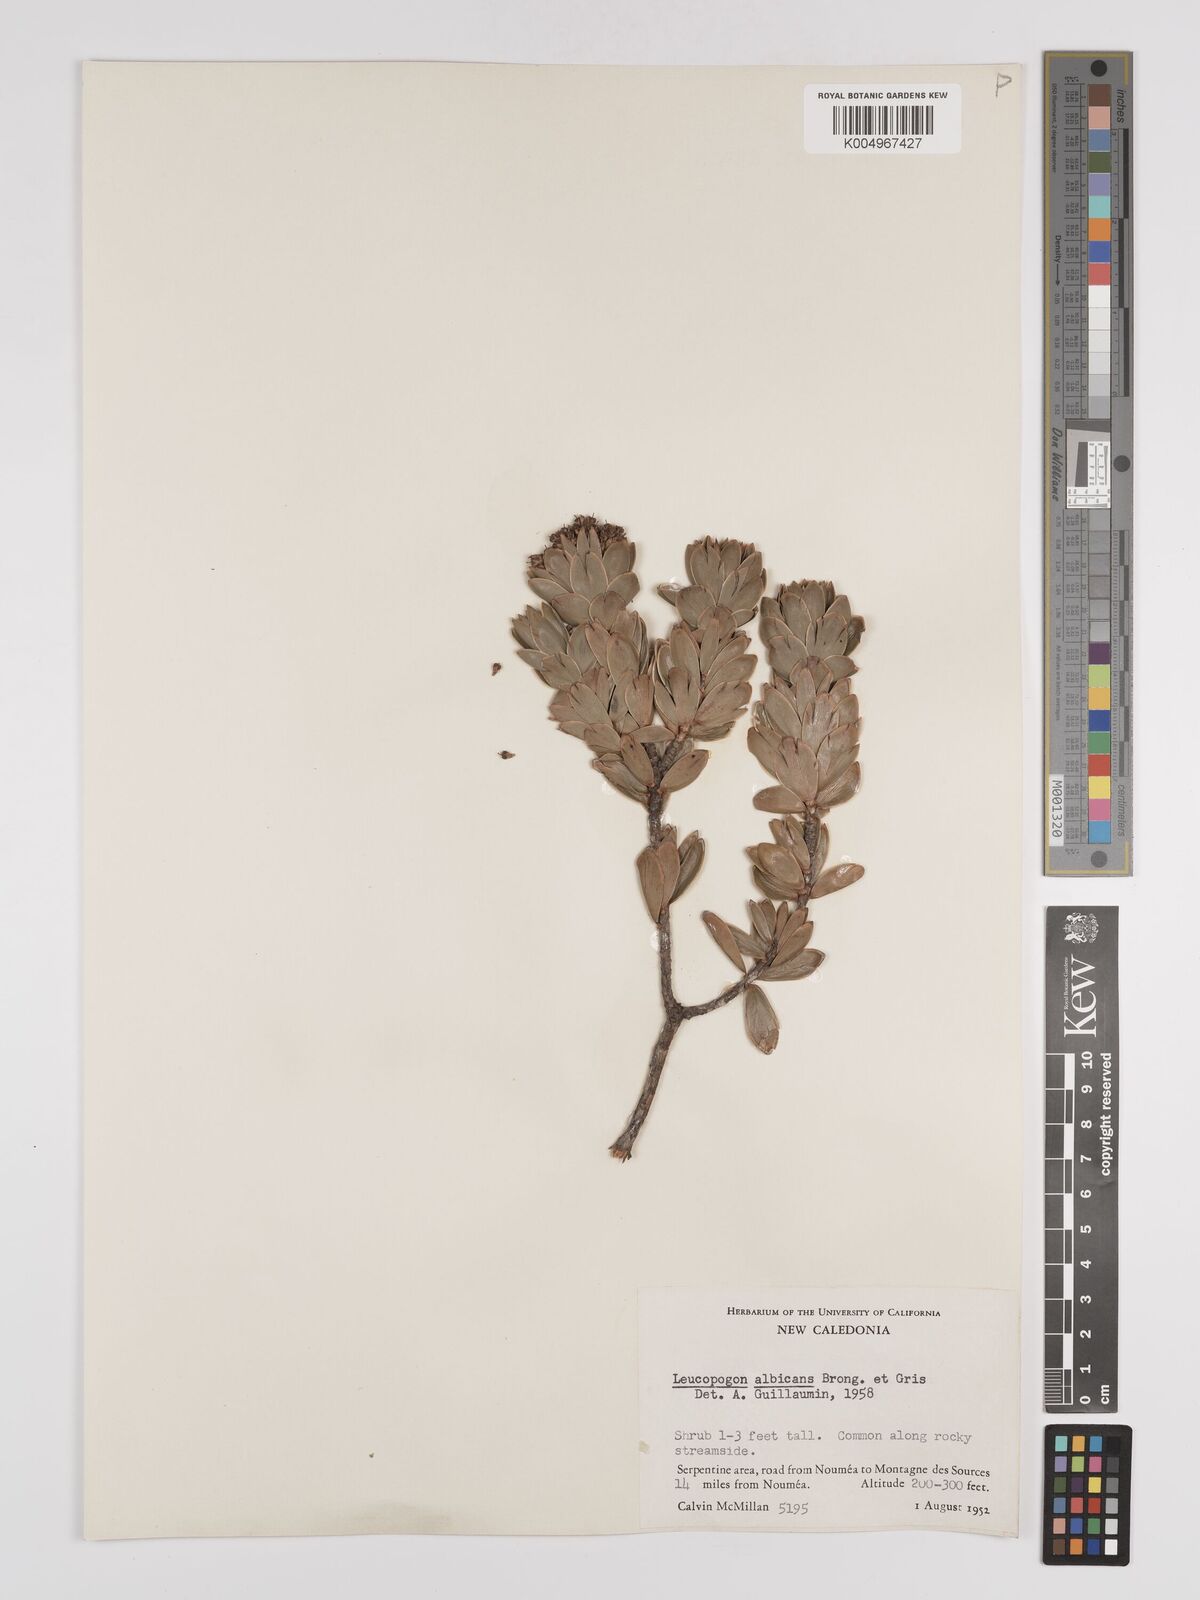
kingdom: Plantae
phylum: Tracheophyta
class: Magnoliopsida
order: Ericales
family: Ericaceae
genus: Cyathopsis
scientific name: Cyathopsis albicans
